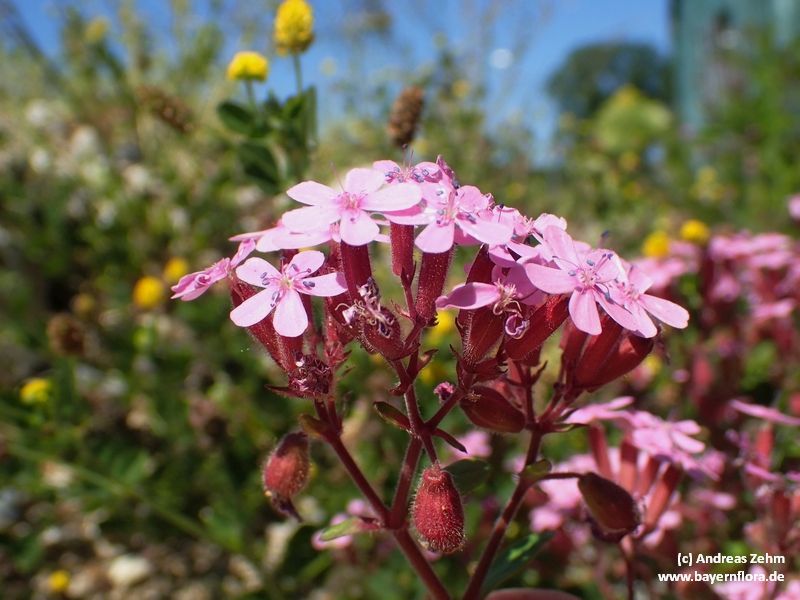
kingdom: Plantae
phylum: Tracheophyta
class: Magnoliopsida
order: Caryophyllales
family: Caryophyllaceae
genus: Saponaria
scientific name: Saponaria ocymoides
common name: Rock soapwort
